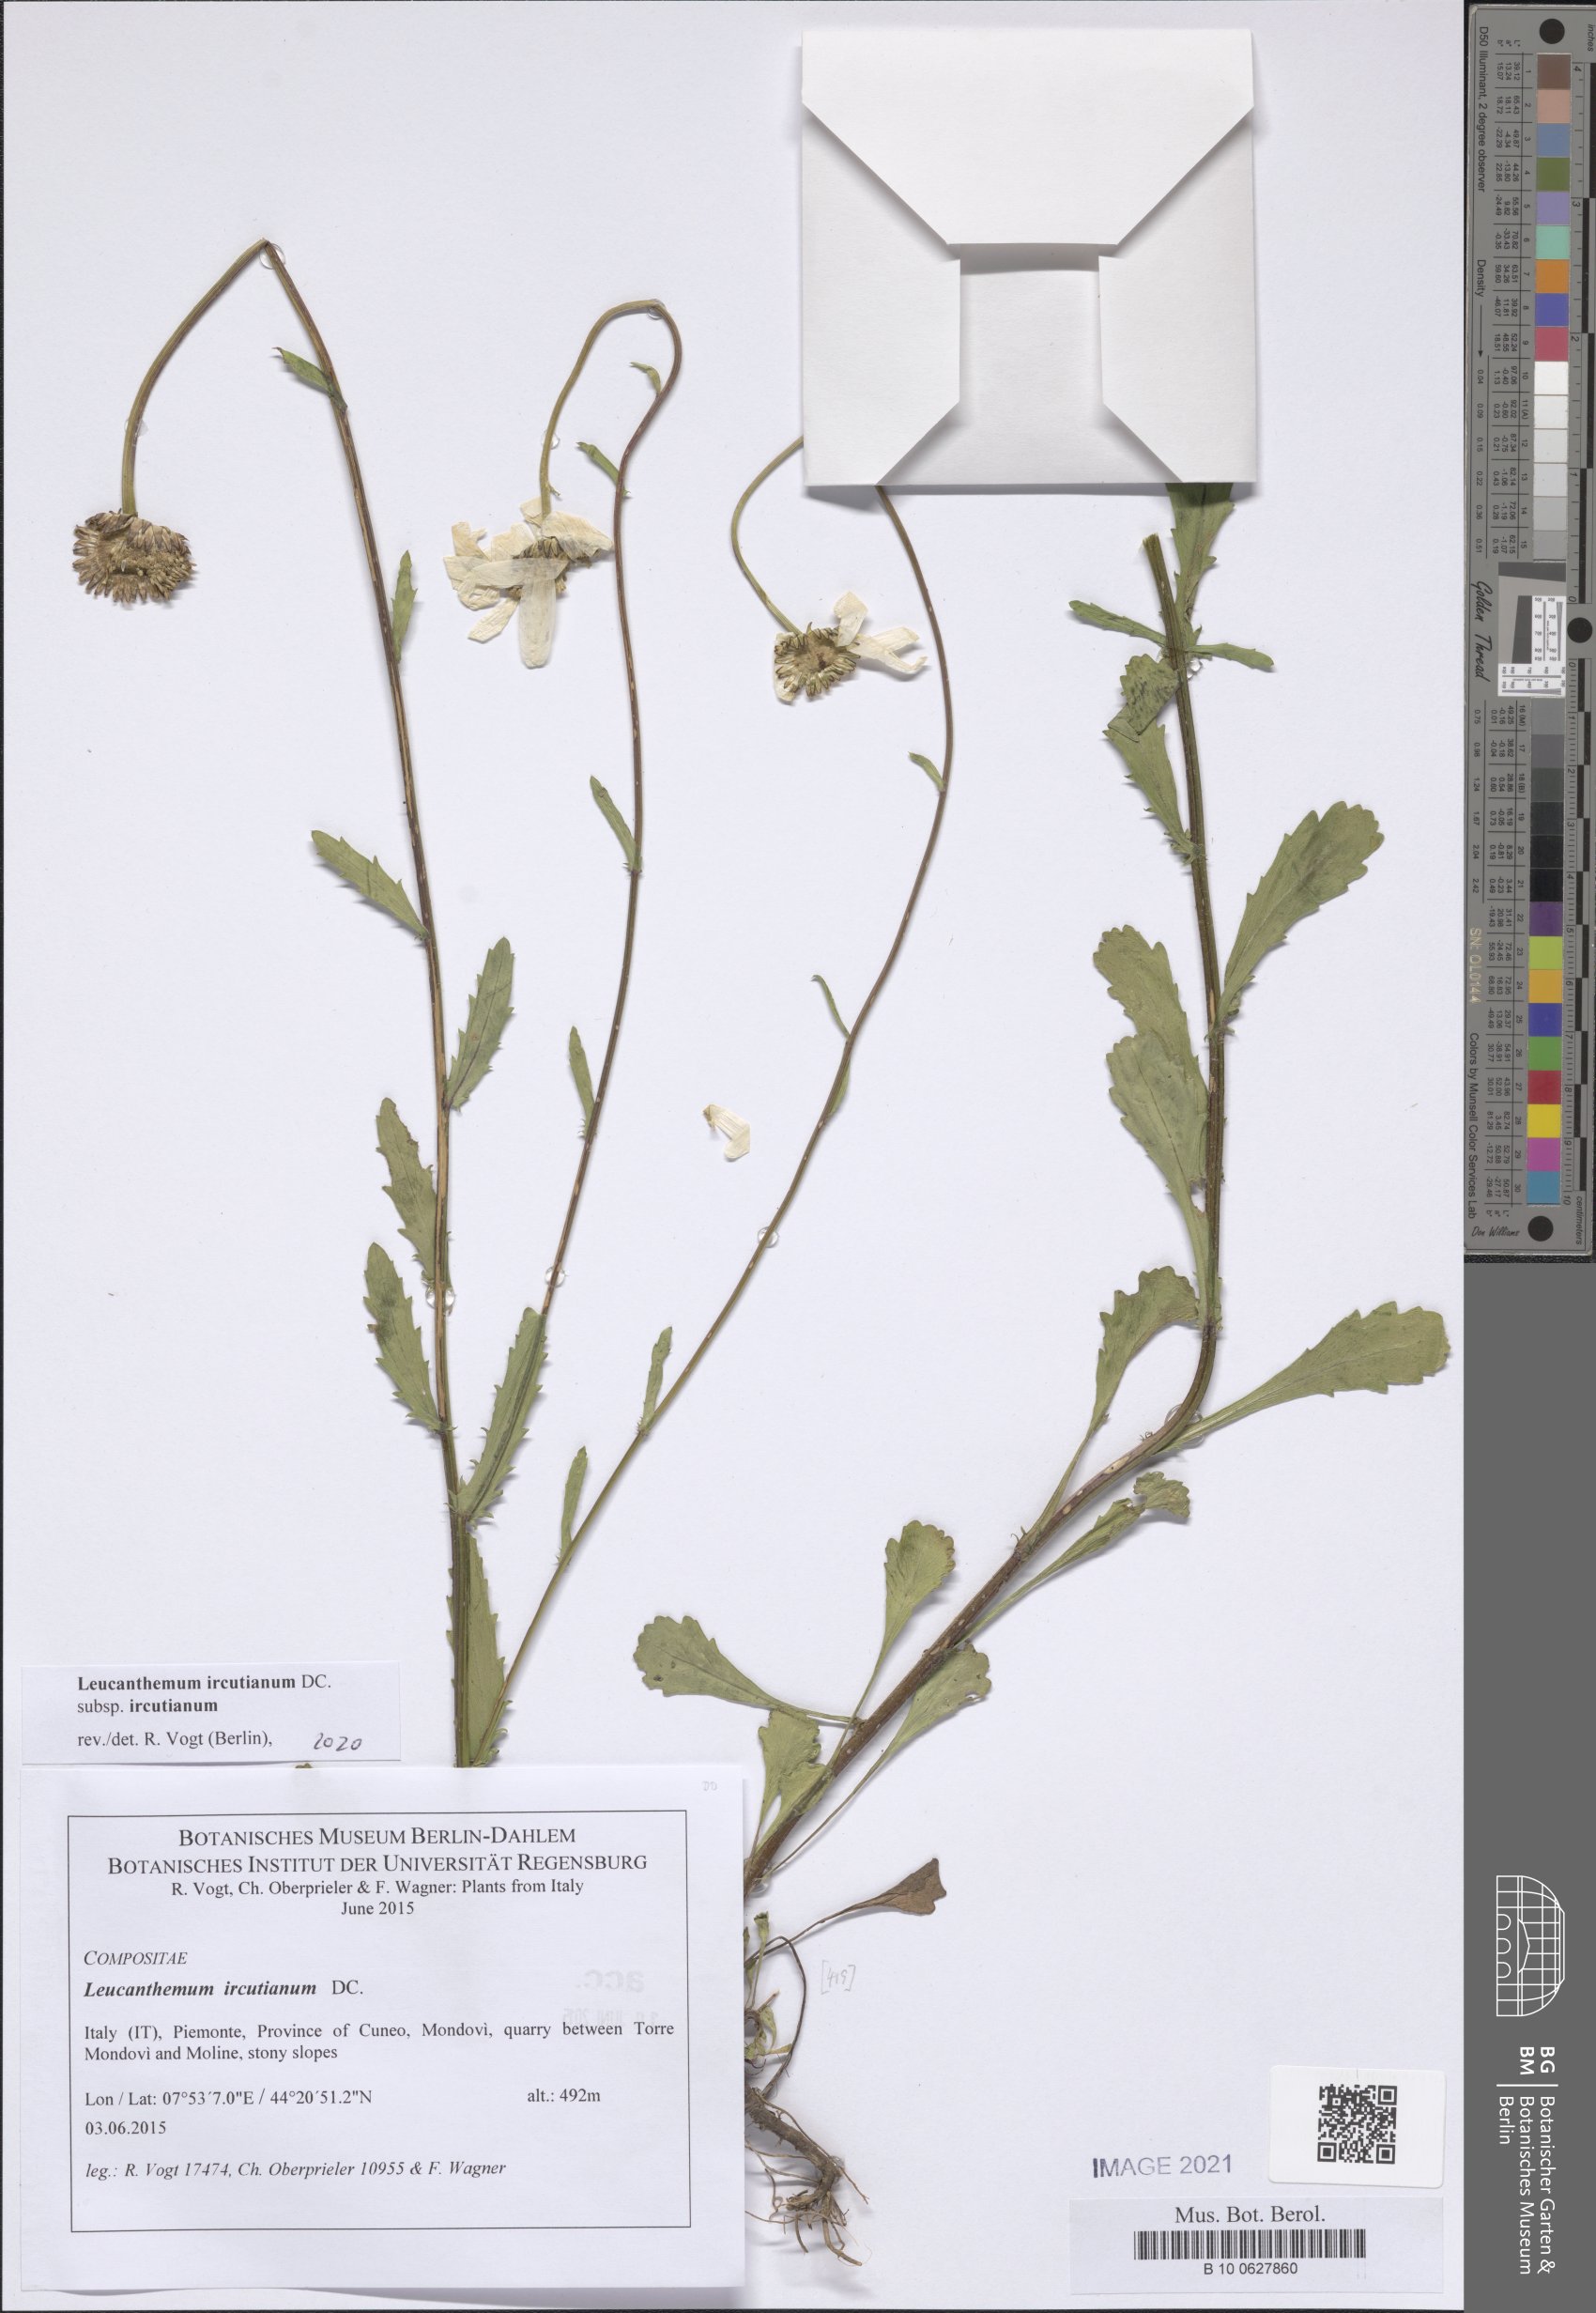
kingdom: Plantae
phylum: Tracheophyta
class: Magnoliopsida
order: Asterales
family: Asteraceae
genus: Leucanthemum
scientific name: Leucanthemum ircutianum
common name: Daisy
